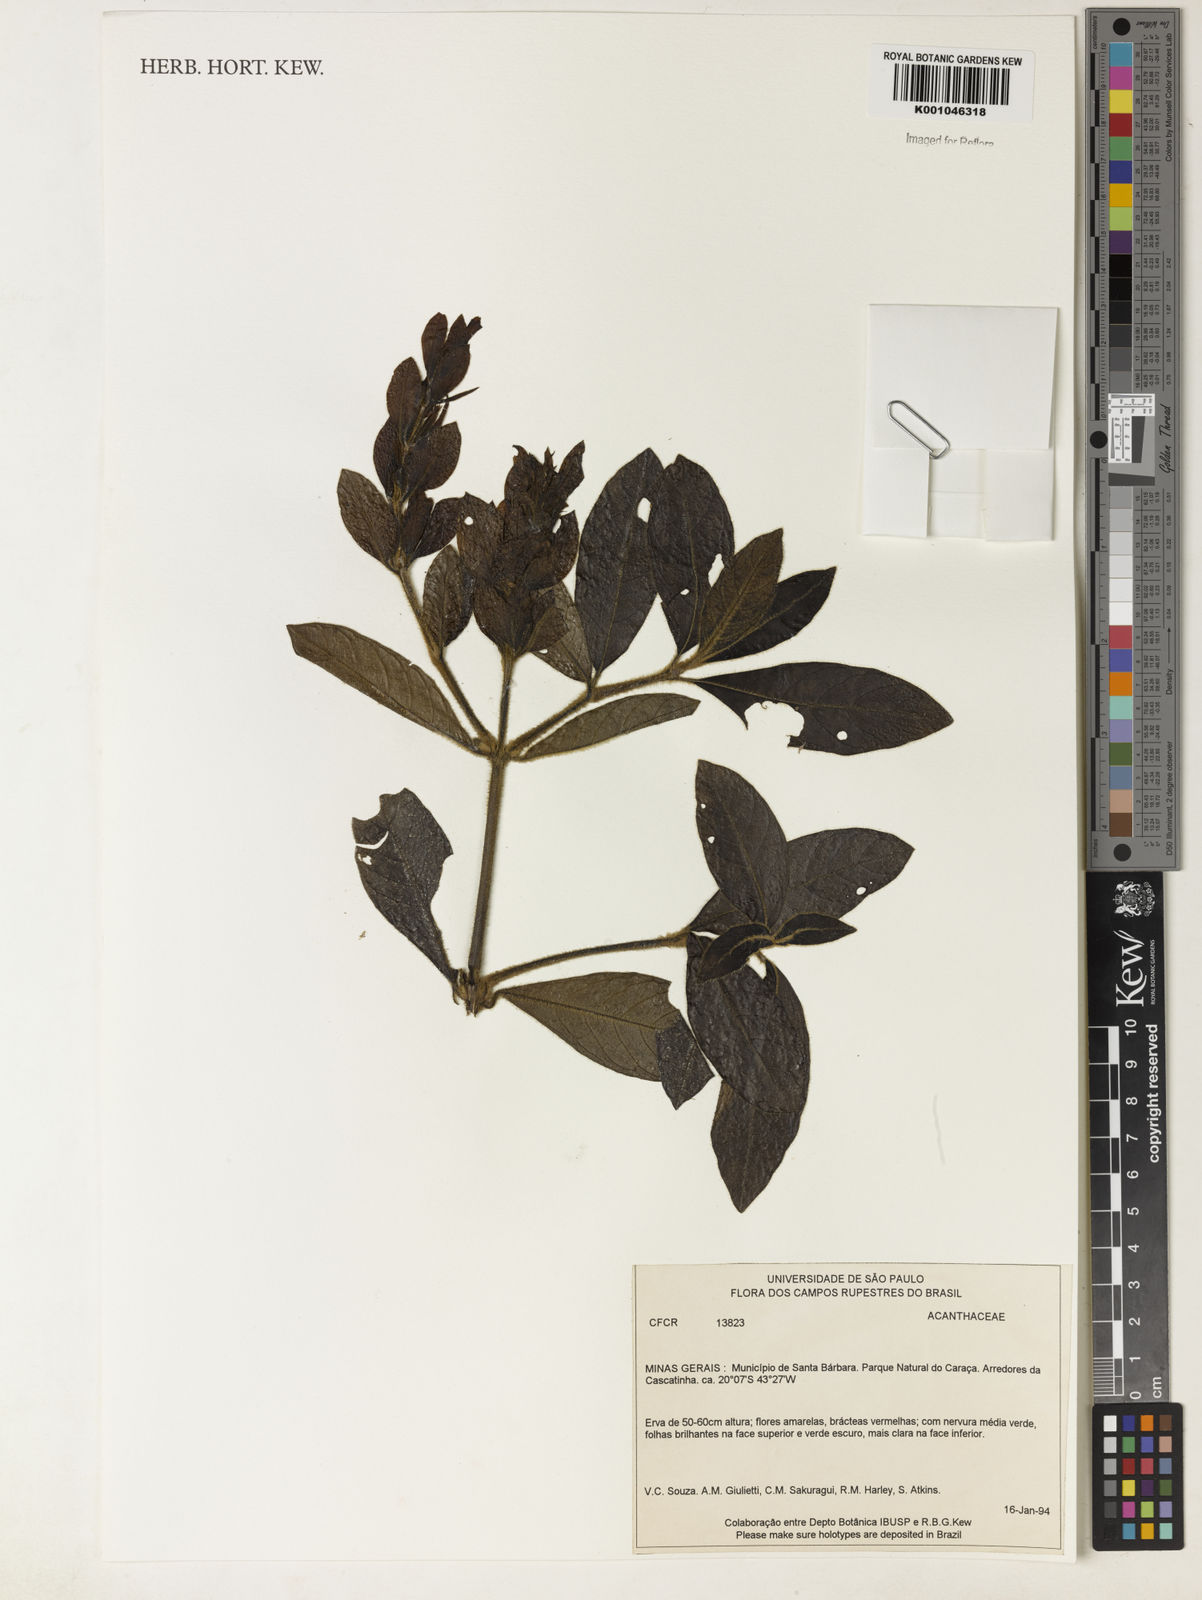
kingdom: Plantae
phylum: Tracheophyta
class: Magnoliopsida
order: Lamiales
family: Acanthaceae
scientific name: Acanthaceae
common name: Acanthaceae
